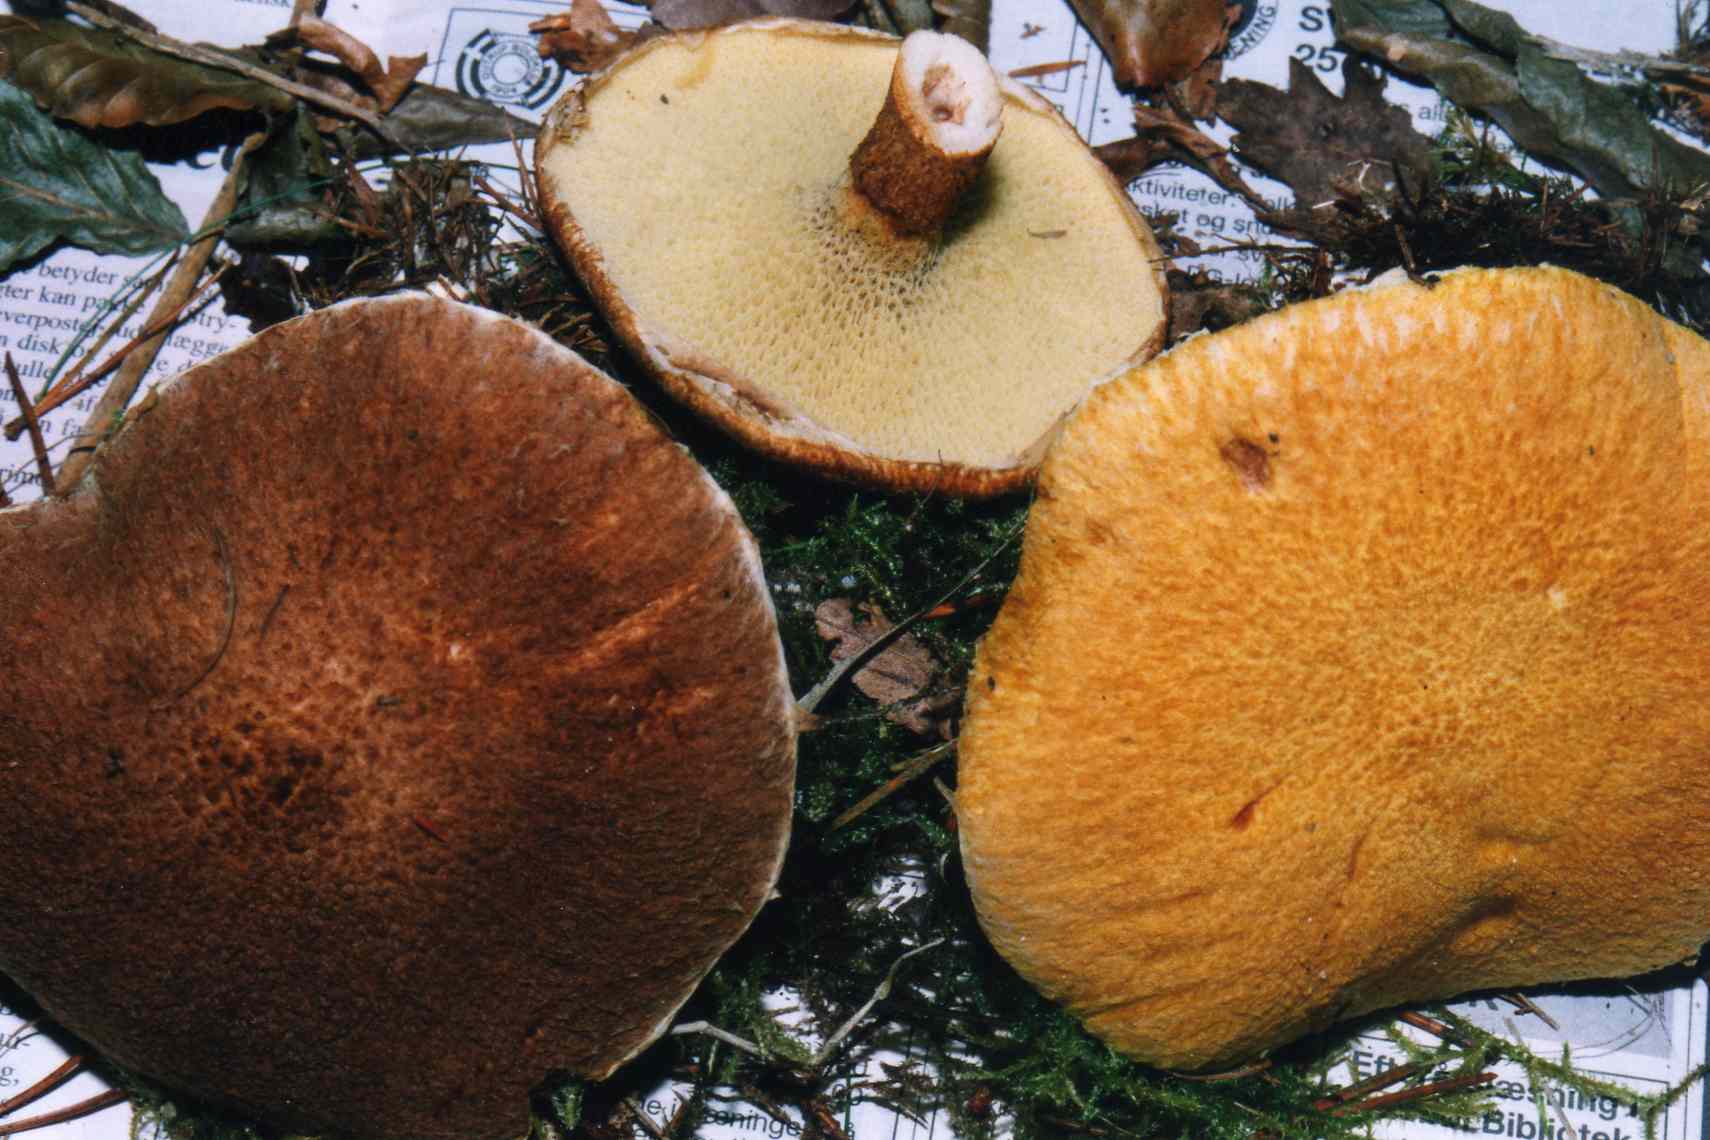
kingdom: Fungi
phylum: Basidiomycota
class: Agaricomycetes
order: Boletales
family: Suillaceae
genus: Suillus
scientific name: Suillus cavipes
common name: hulstokket slimrørhat
